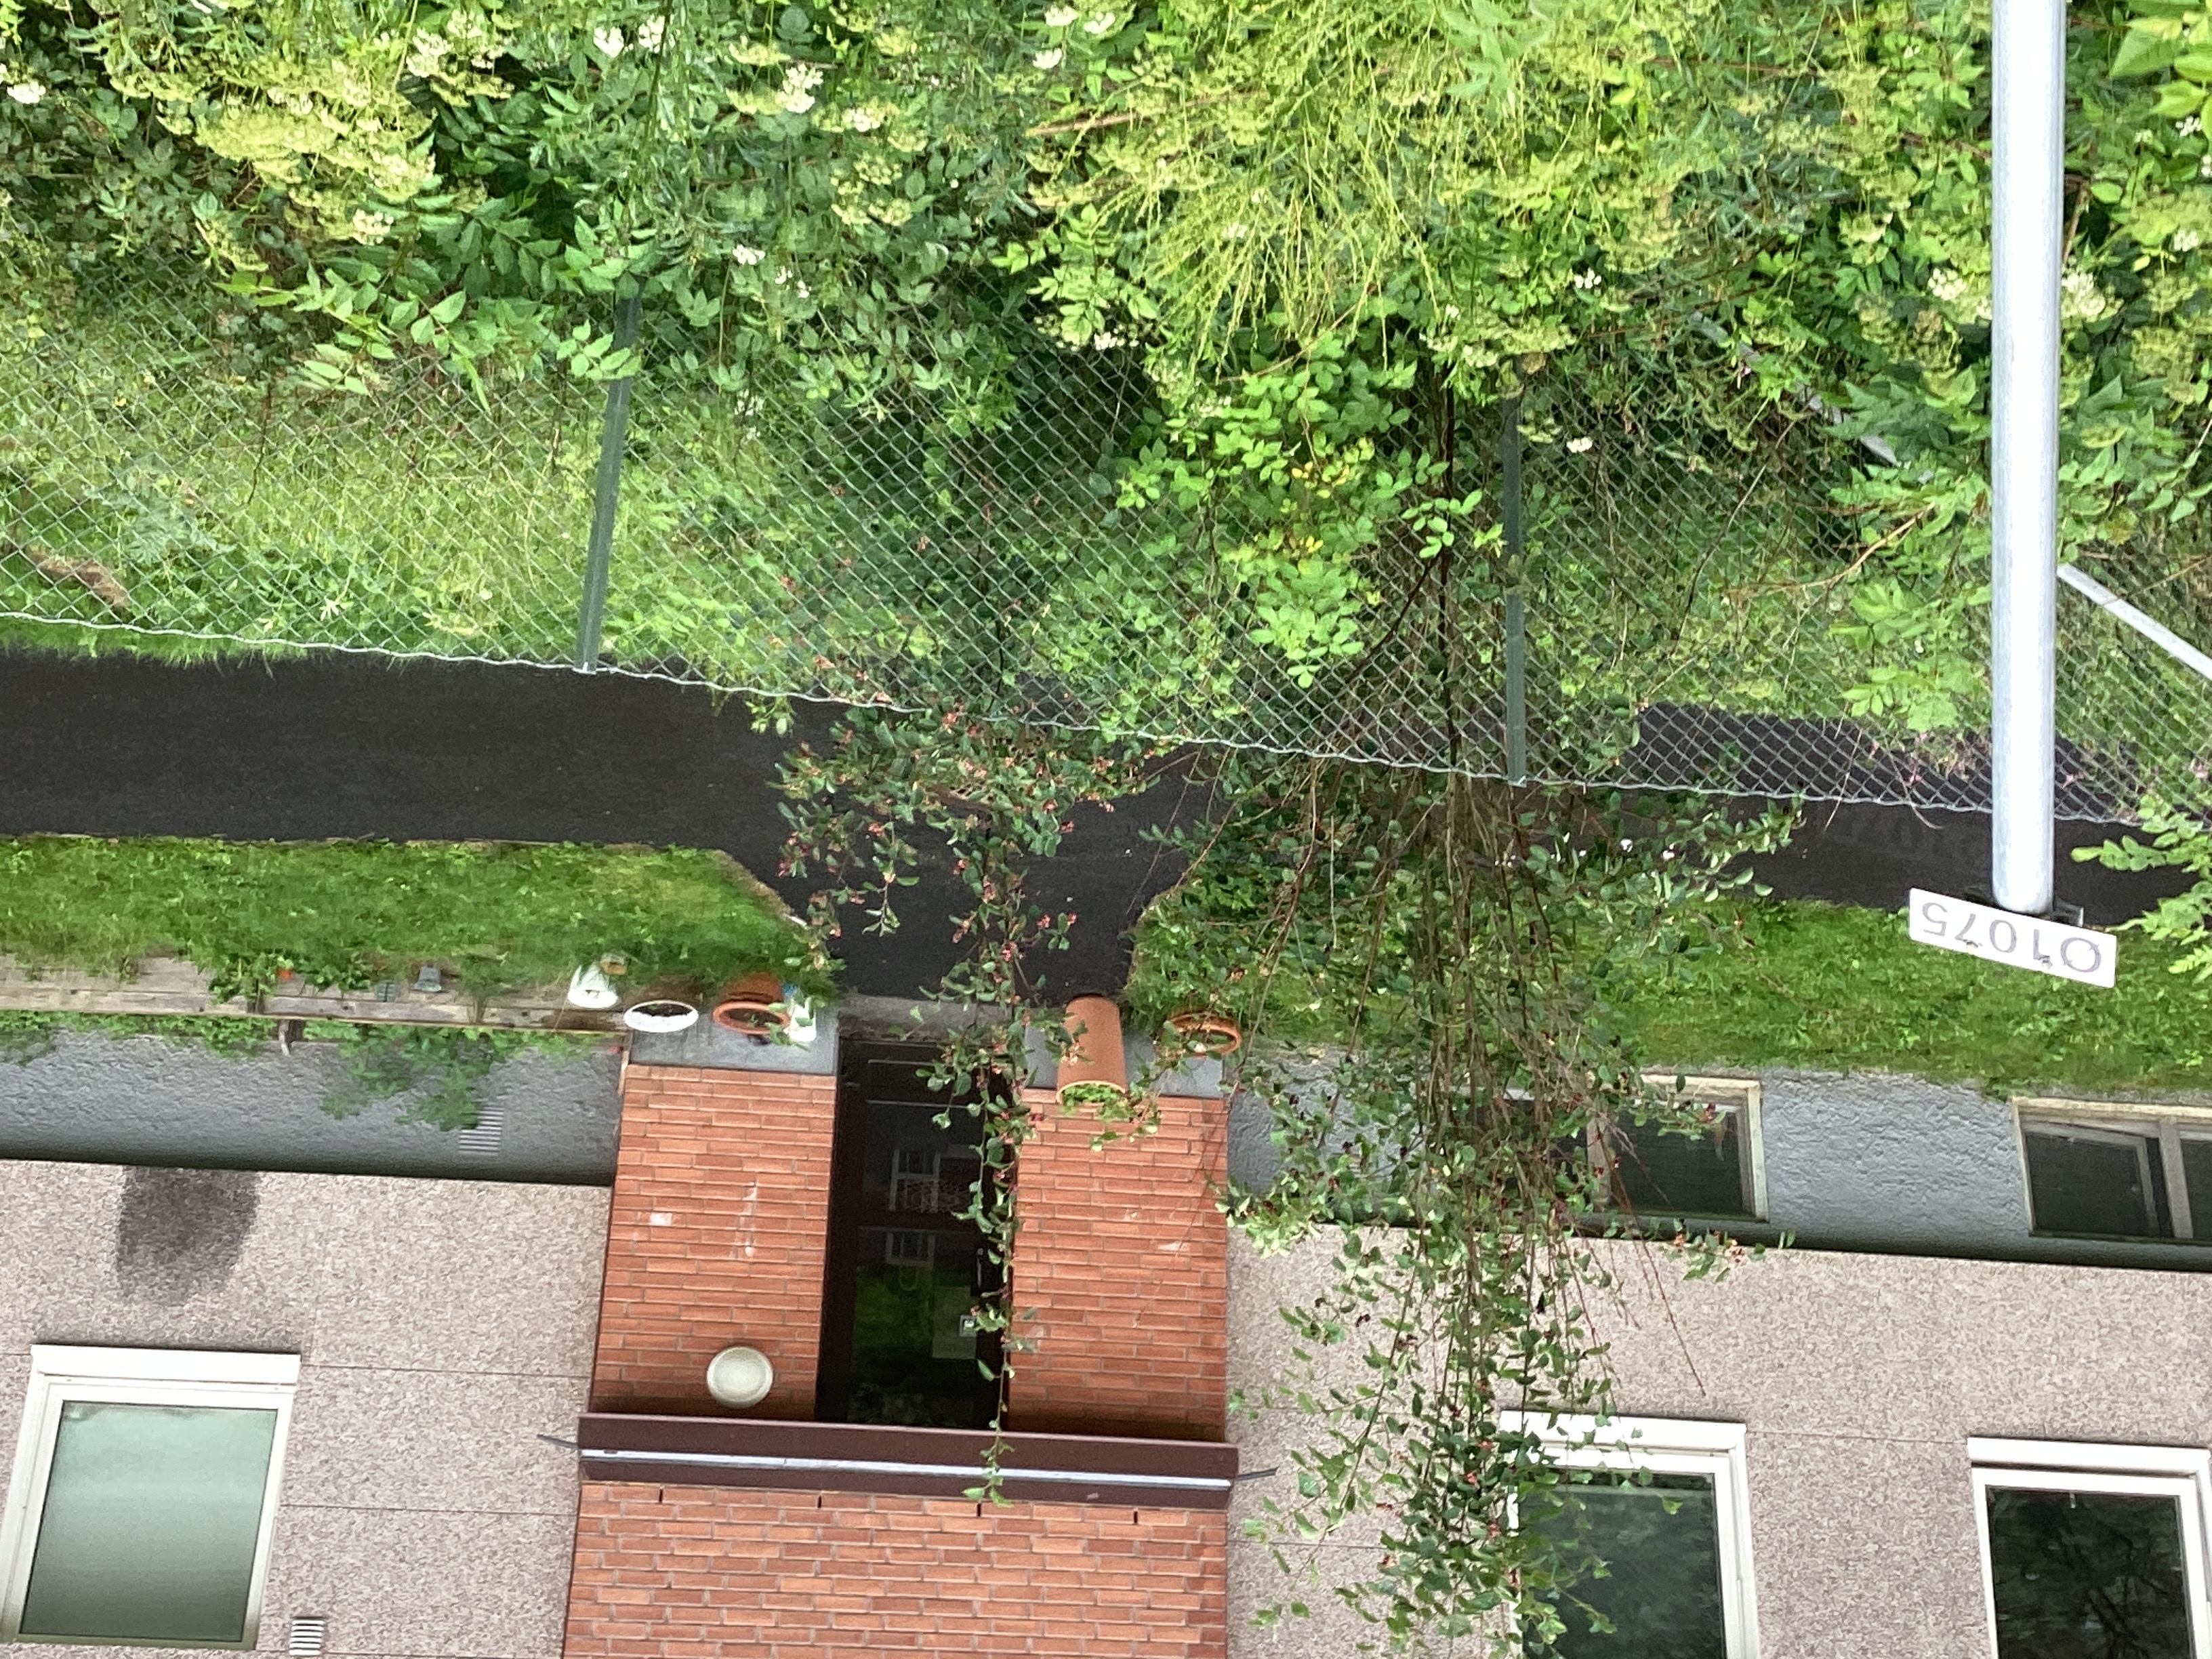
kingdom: Plantae
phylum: Tracheophyta
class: Magnoliopsida
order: Rosales
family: Rosaceae
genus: Amelanchier
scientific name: Amelanchier humilis
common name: blåhegg
